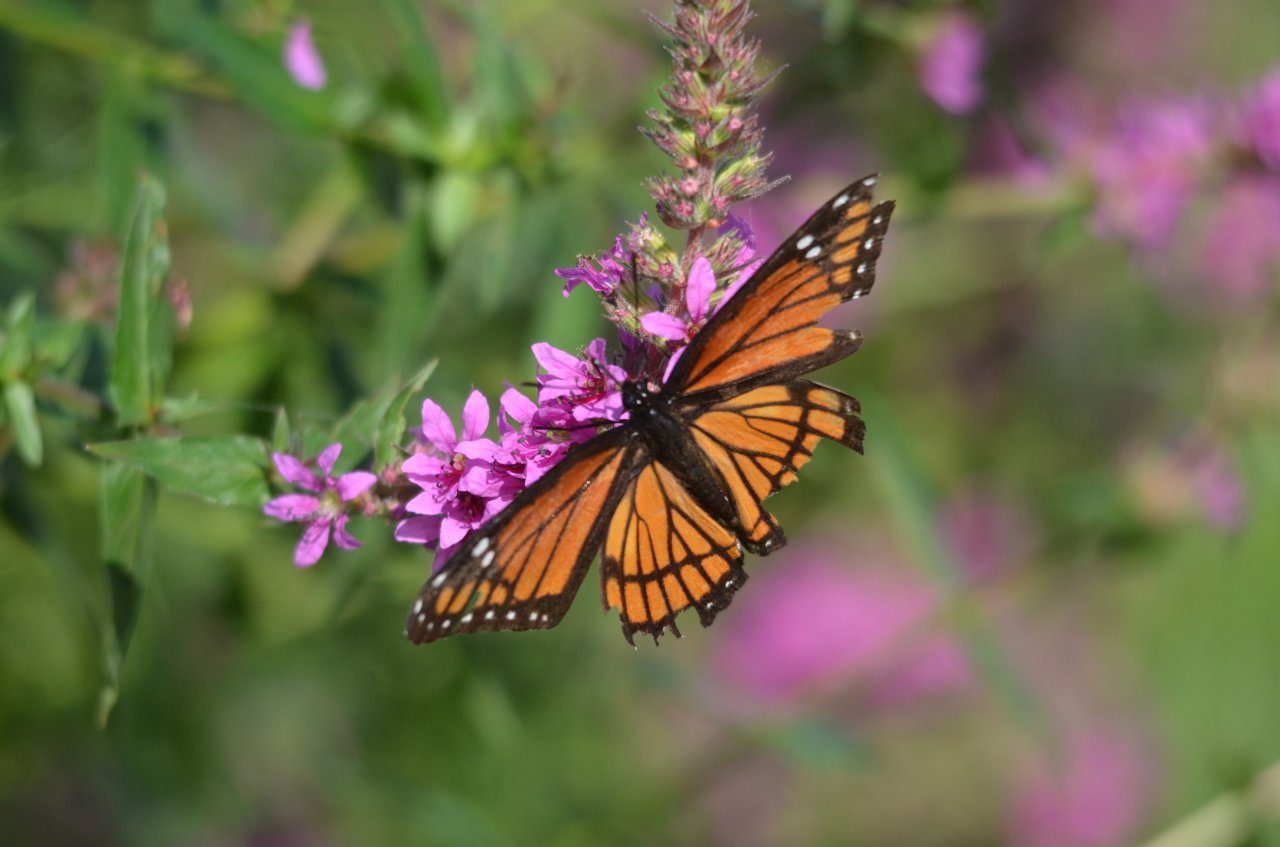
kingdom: Animalia
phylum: Arthropoda
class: Insecta
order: Lepidoptera
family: Nymphalidae
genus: Limenitis
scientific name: Limenitis archippus
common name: Viceroy
